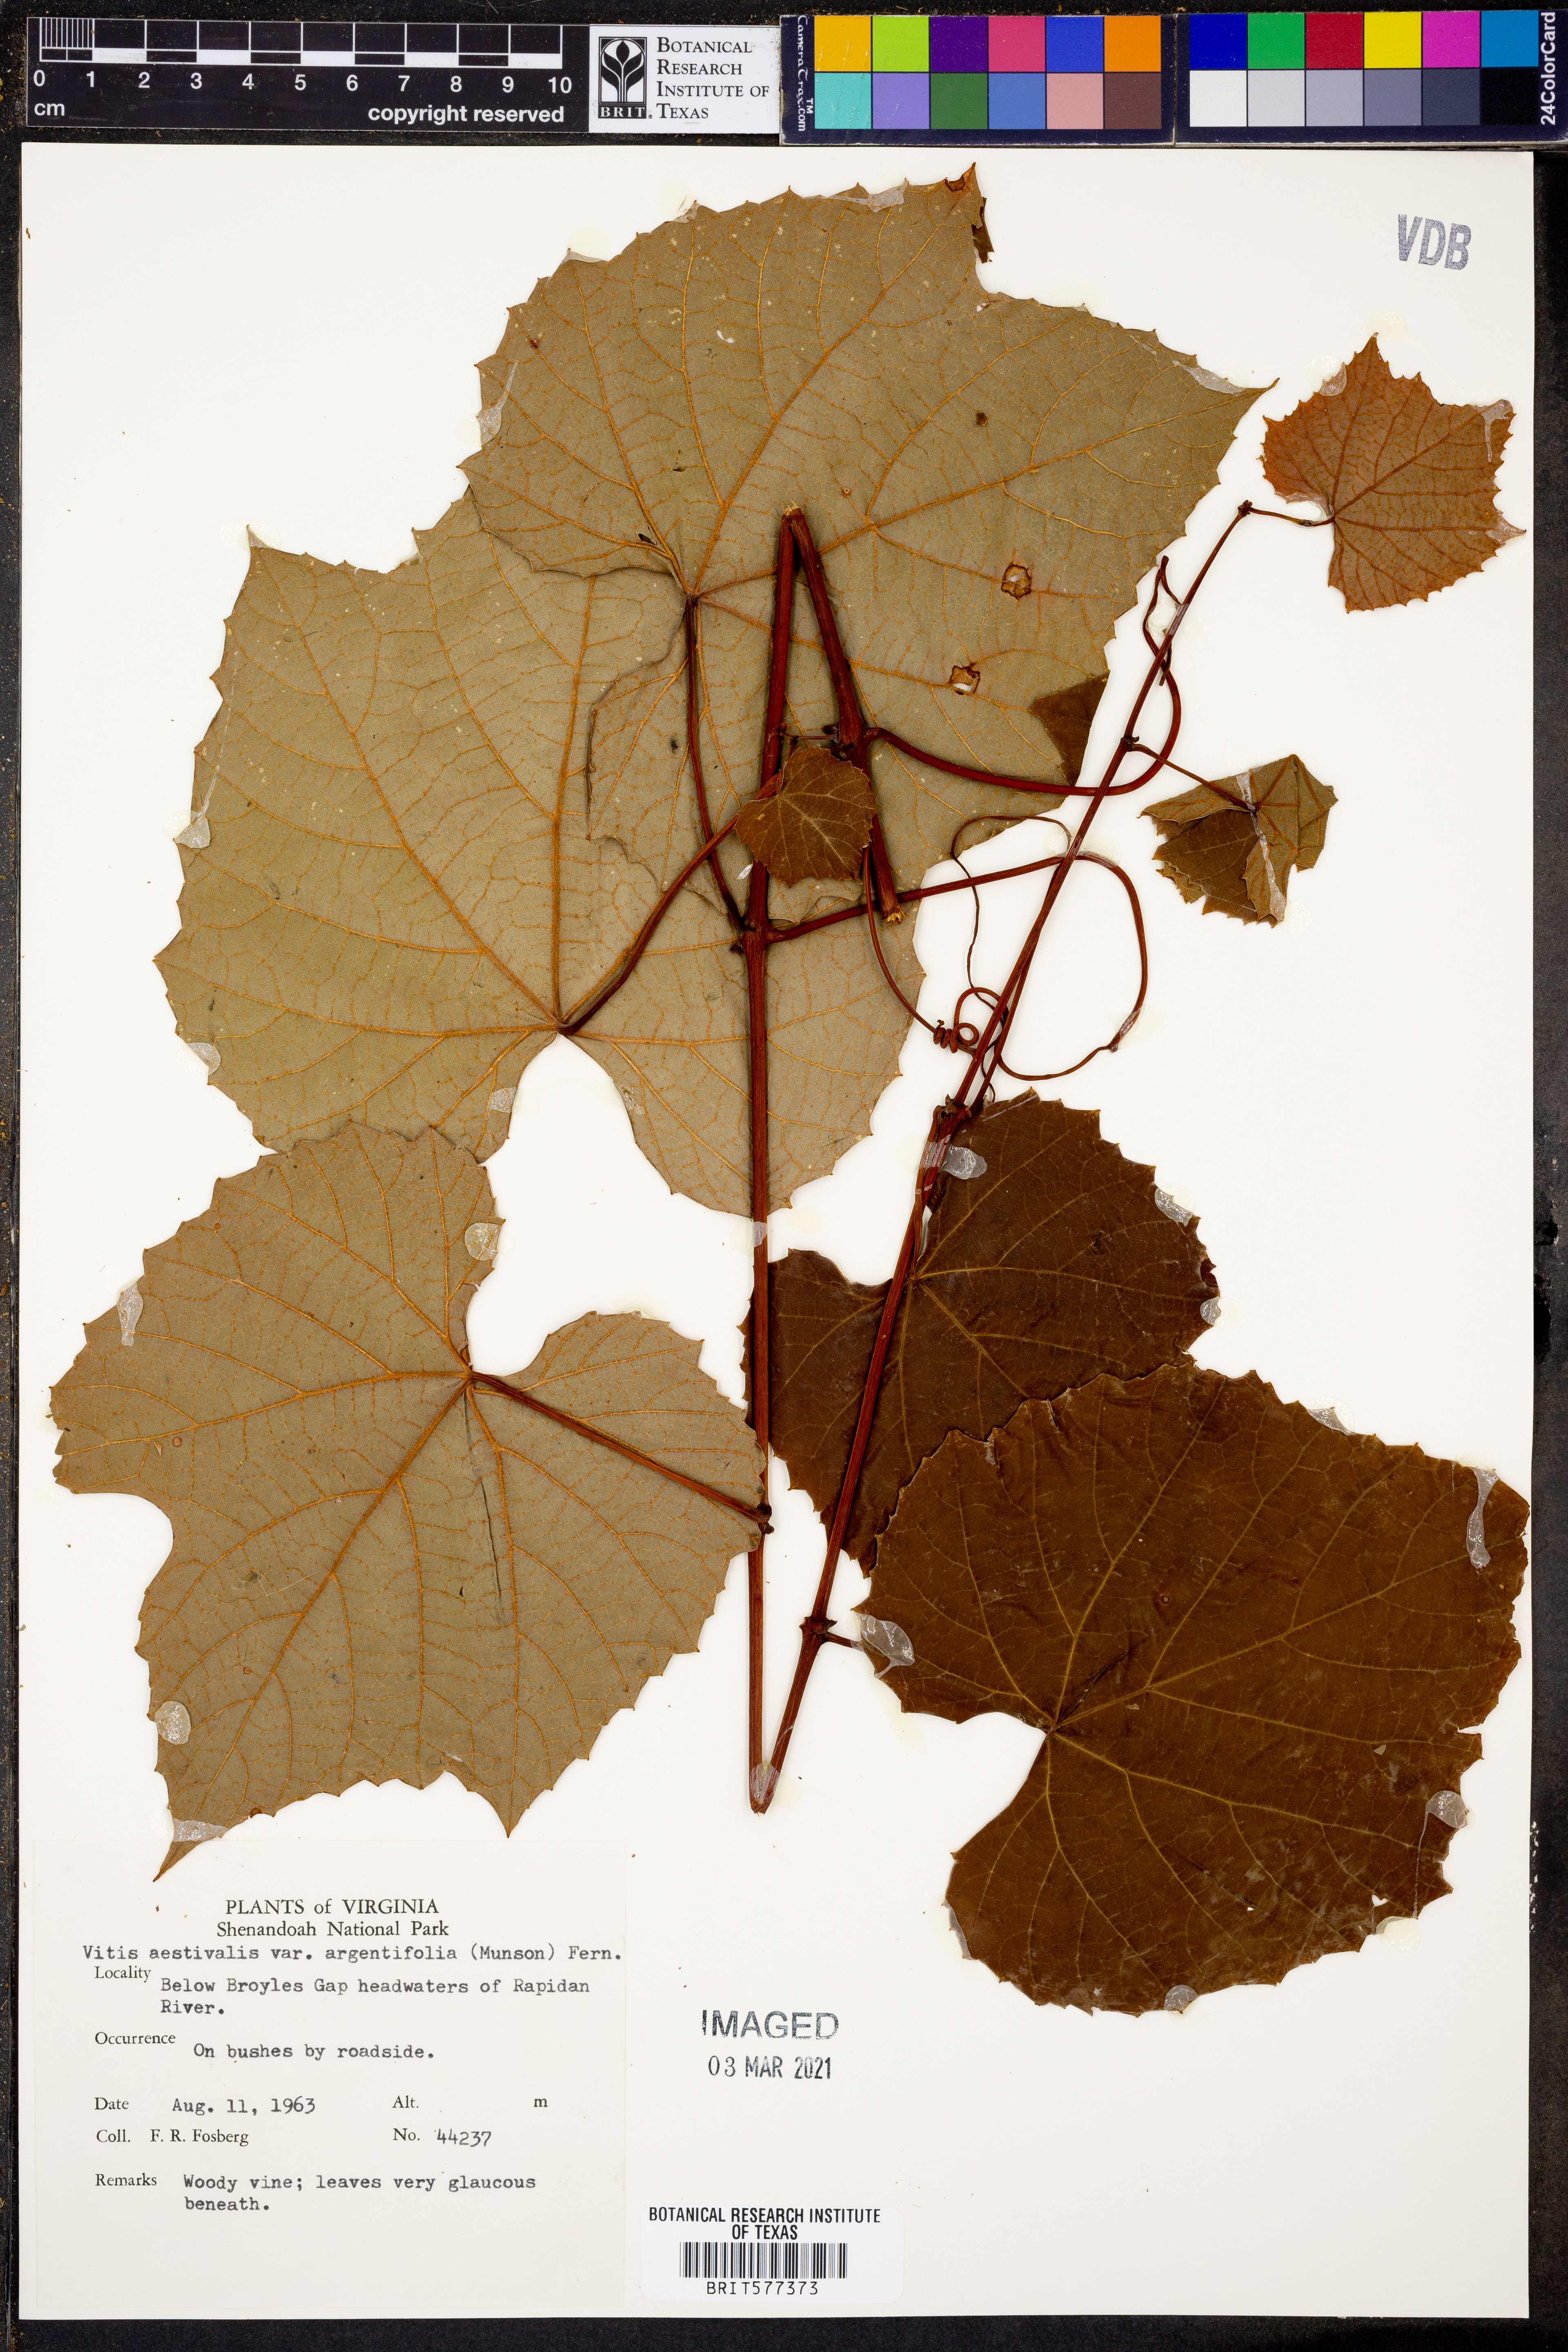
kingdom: Plantae
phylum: Tracheophyta
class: Magnoliopsida
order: Vitales
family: Vitaceae
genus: Vitis
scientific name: Vitis aestivalis
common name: Pigeon grape
